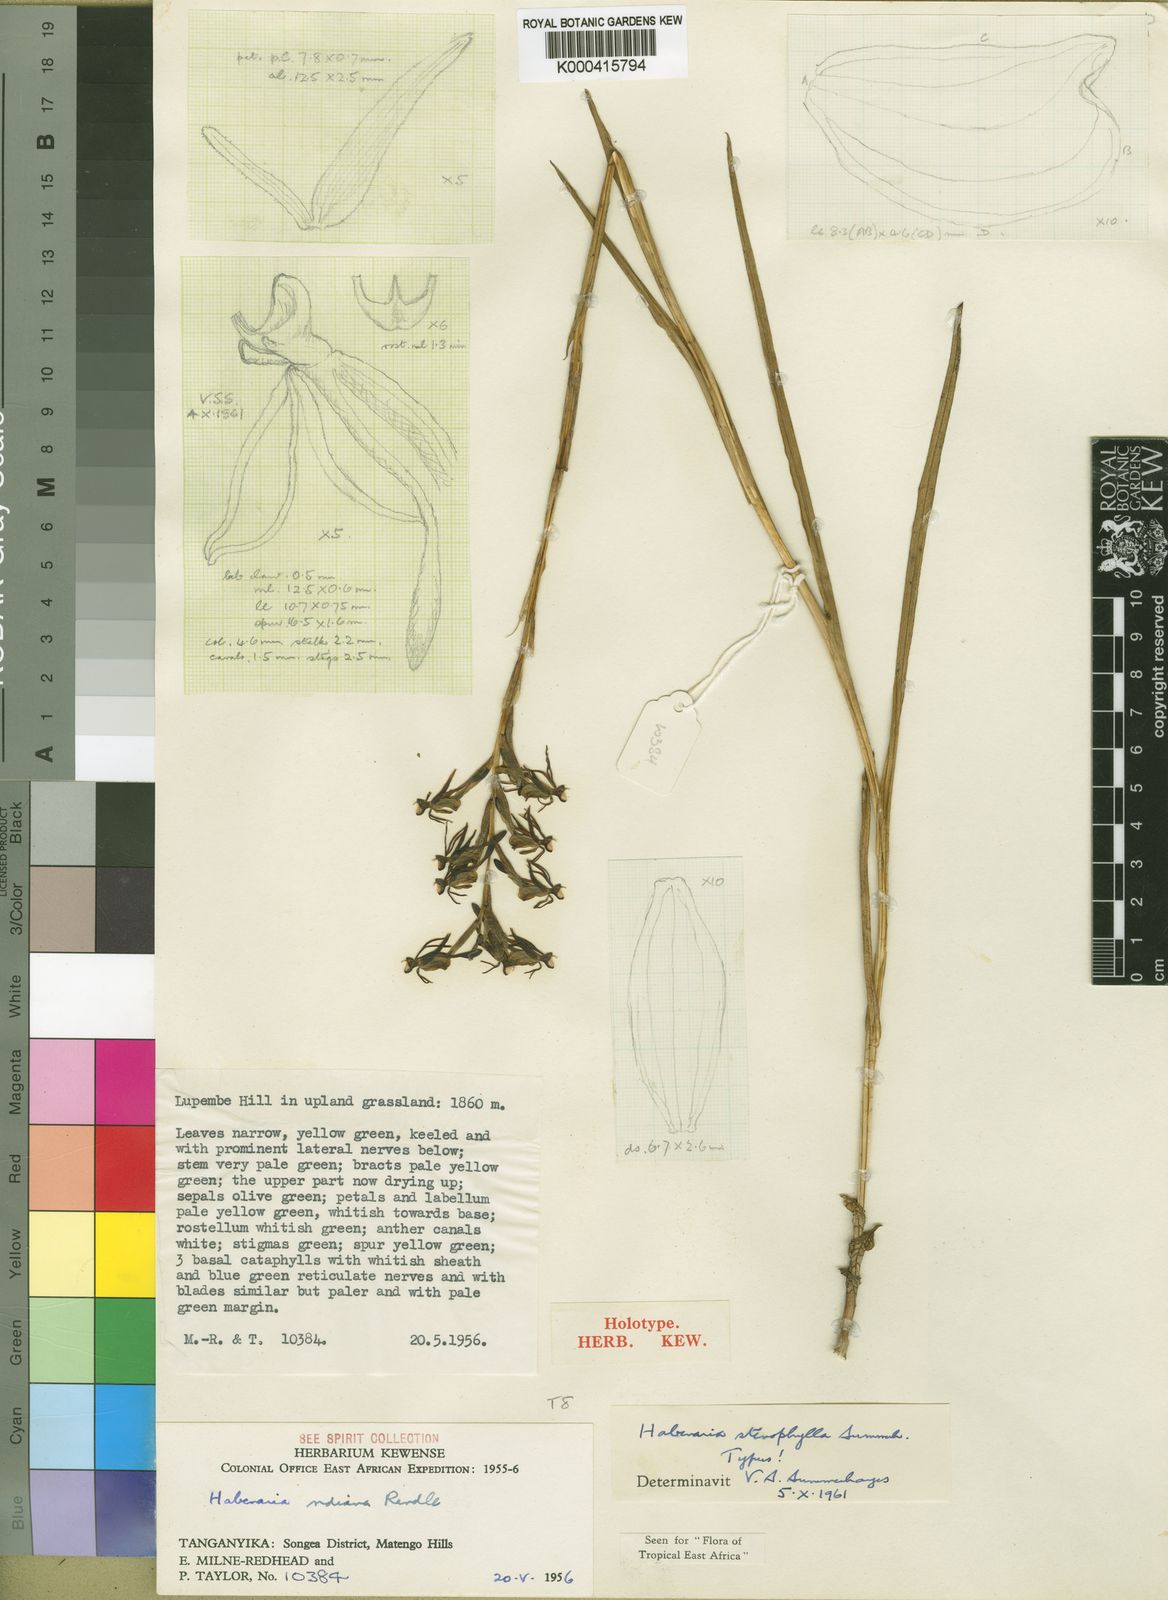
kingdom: Plantae
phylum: Tracheophyta
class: Liliopsida
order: Asparagales
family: Orchidaceae
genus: Habenaria
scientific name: Habenaria stenophylla
